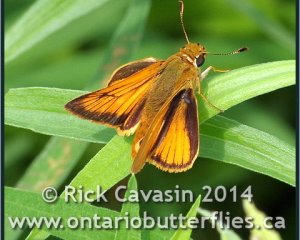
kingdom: Animalia
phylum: Arthropoda
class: Insecta
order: Lepidoptera
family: Hesperiidae
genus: Atrytone
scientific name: Atrytone delaware
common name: Delaware Skipper
